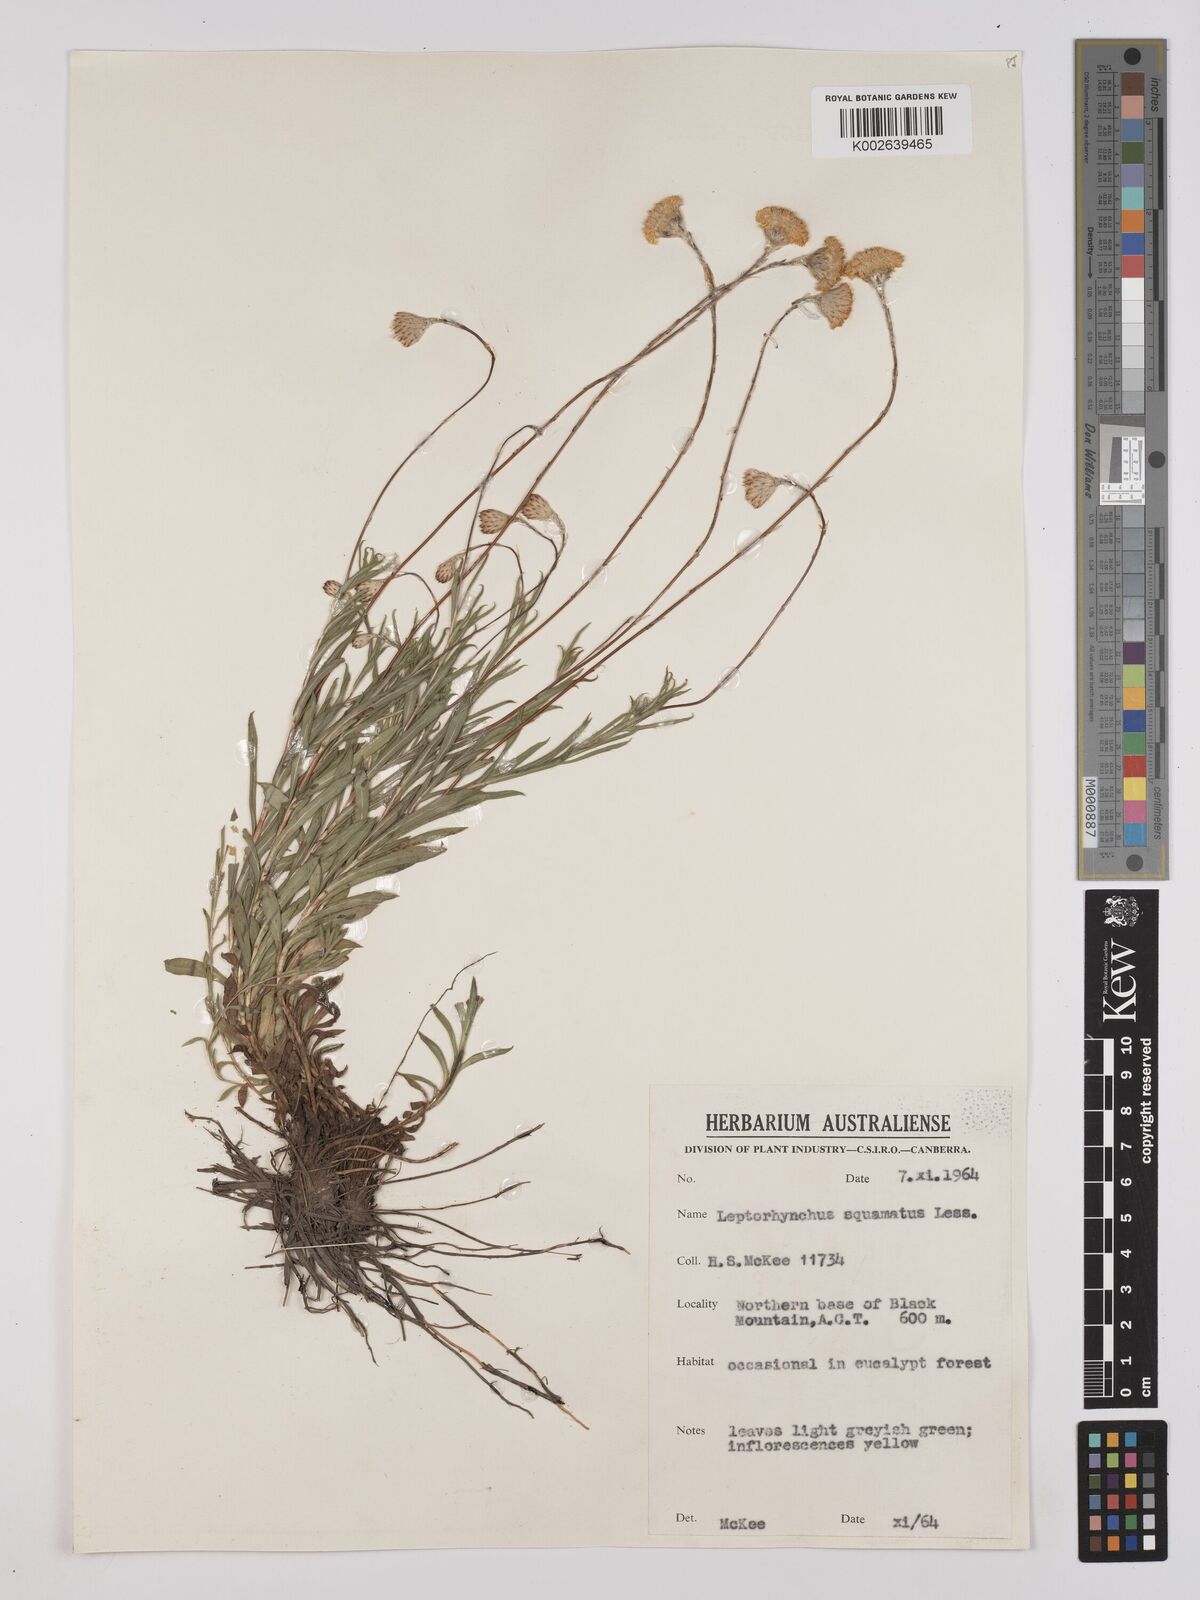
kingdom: Plantae
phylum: Tracheophyta
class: Magnoliopsida
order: Asterales
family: Asteraceae
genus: Leptorhynchos
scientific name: Leptorhynchos squamatus
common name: Scaly-buttons
